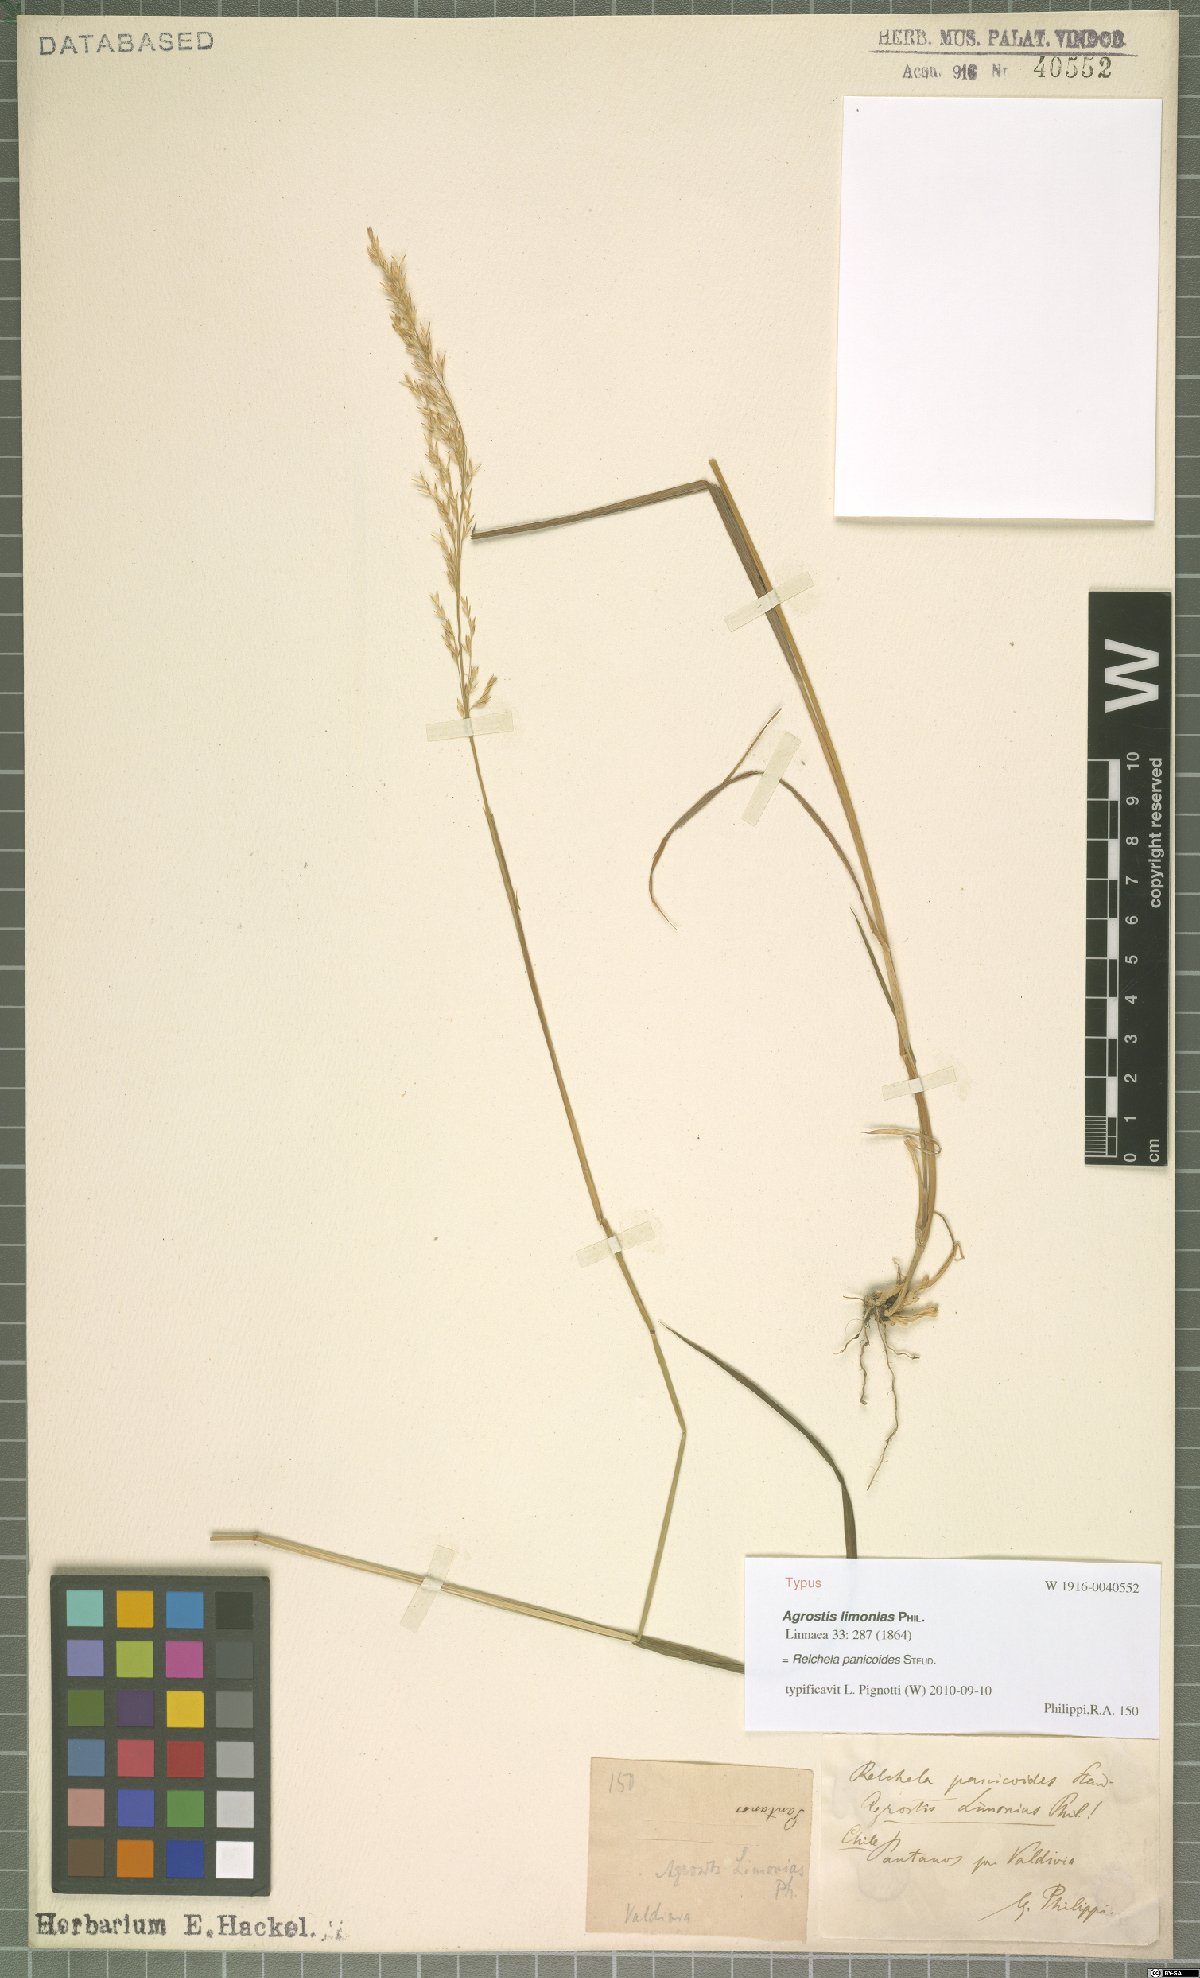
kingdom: Plantae
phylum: Tracheophyta
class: Liliopsida
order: Poales
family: Poaceae
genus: Relchela
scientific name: Relchela panicoides
